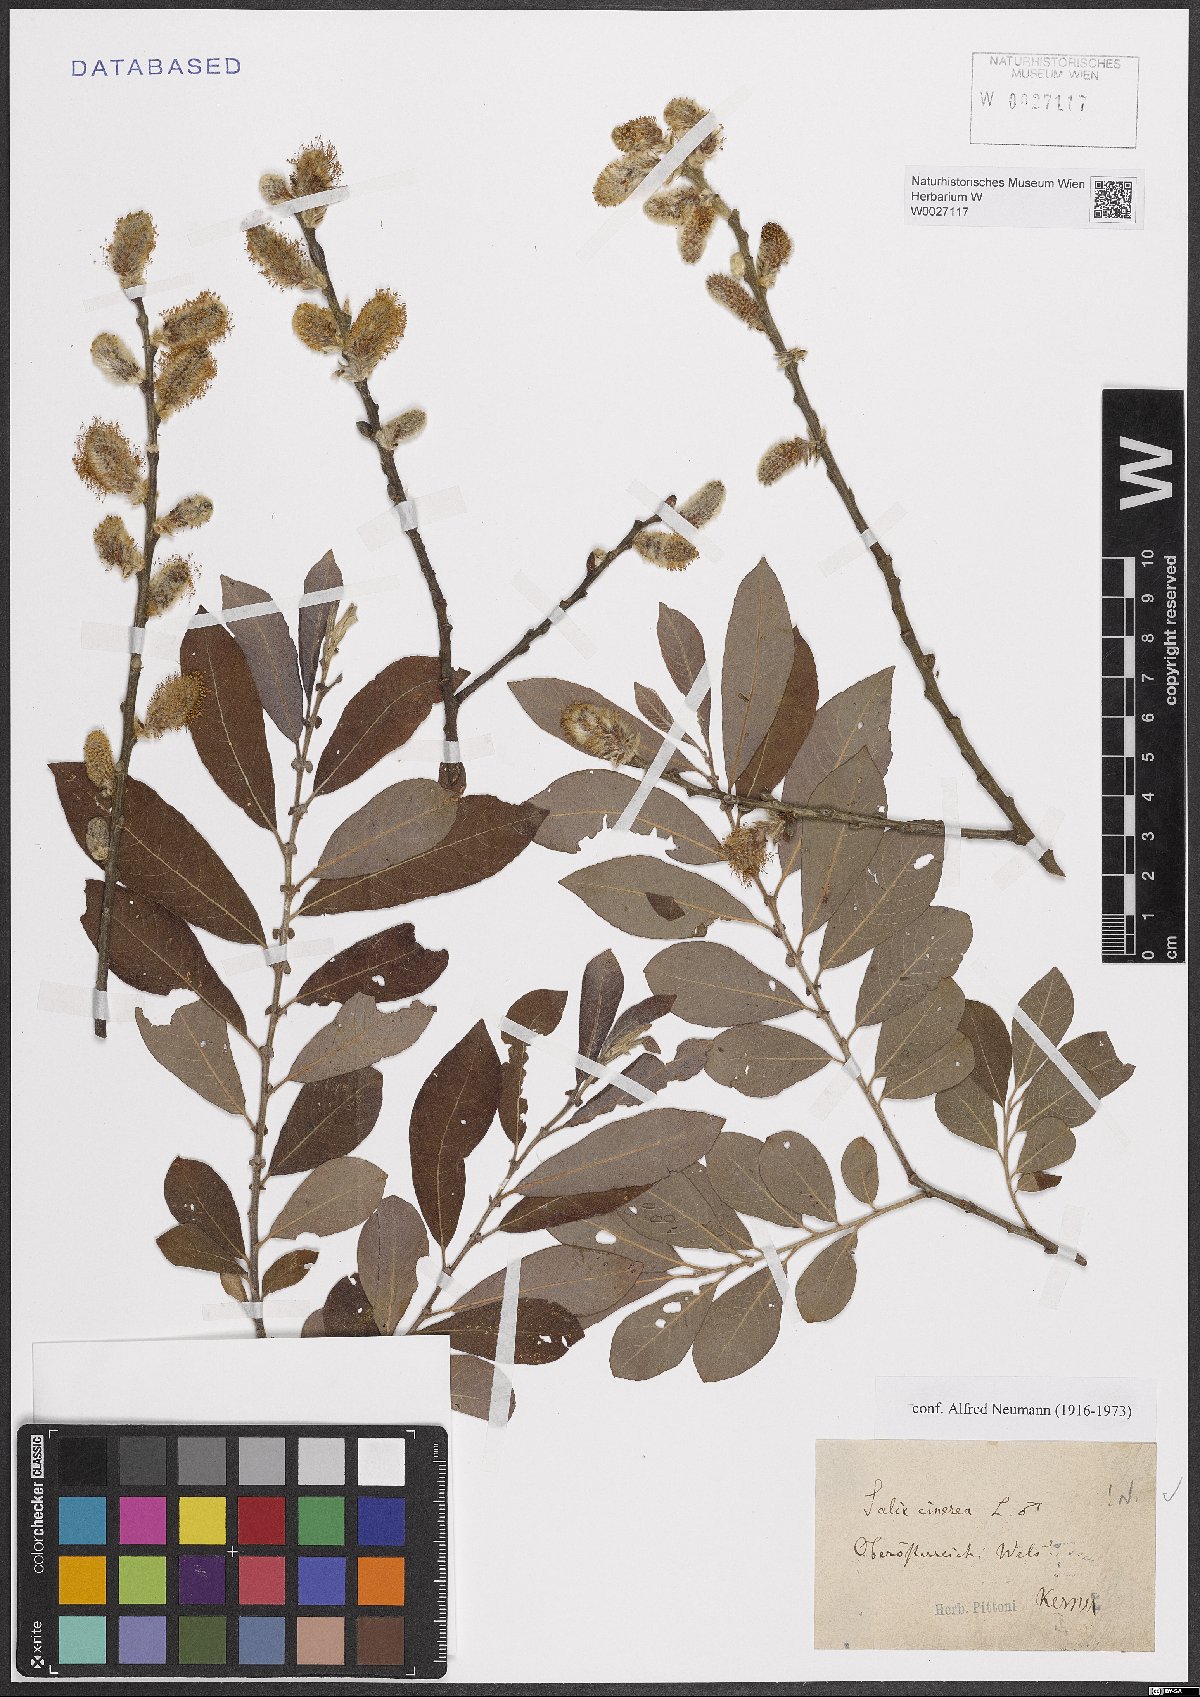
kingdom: Plantae
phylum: Tracheophyta
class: Magnoliopsida
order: Malpighiales
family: Salicaceae
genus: Salix
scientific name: Salix cinerea
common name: Common sallow
